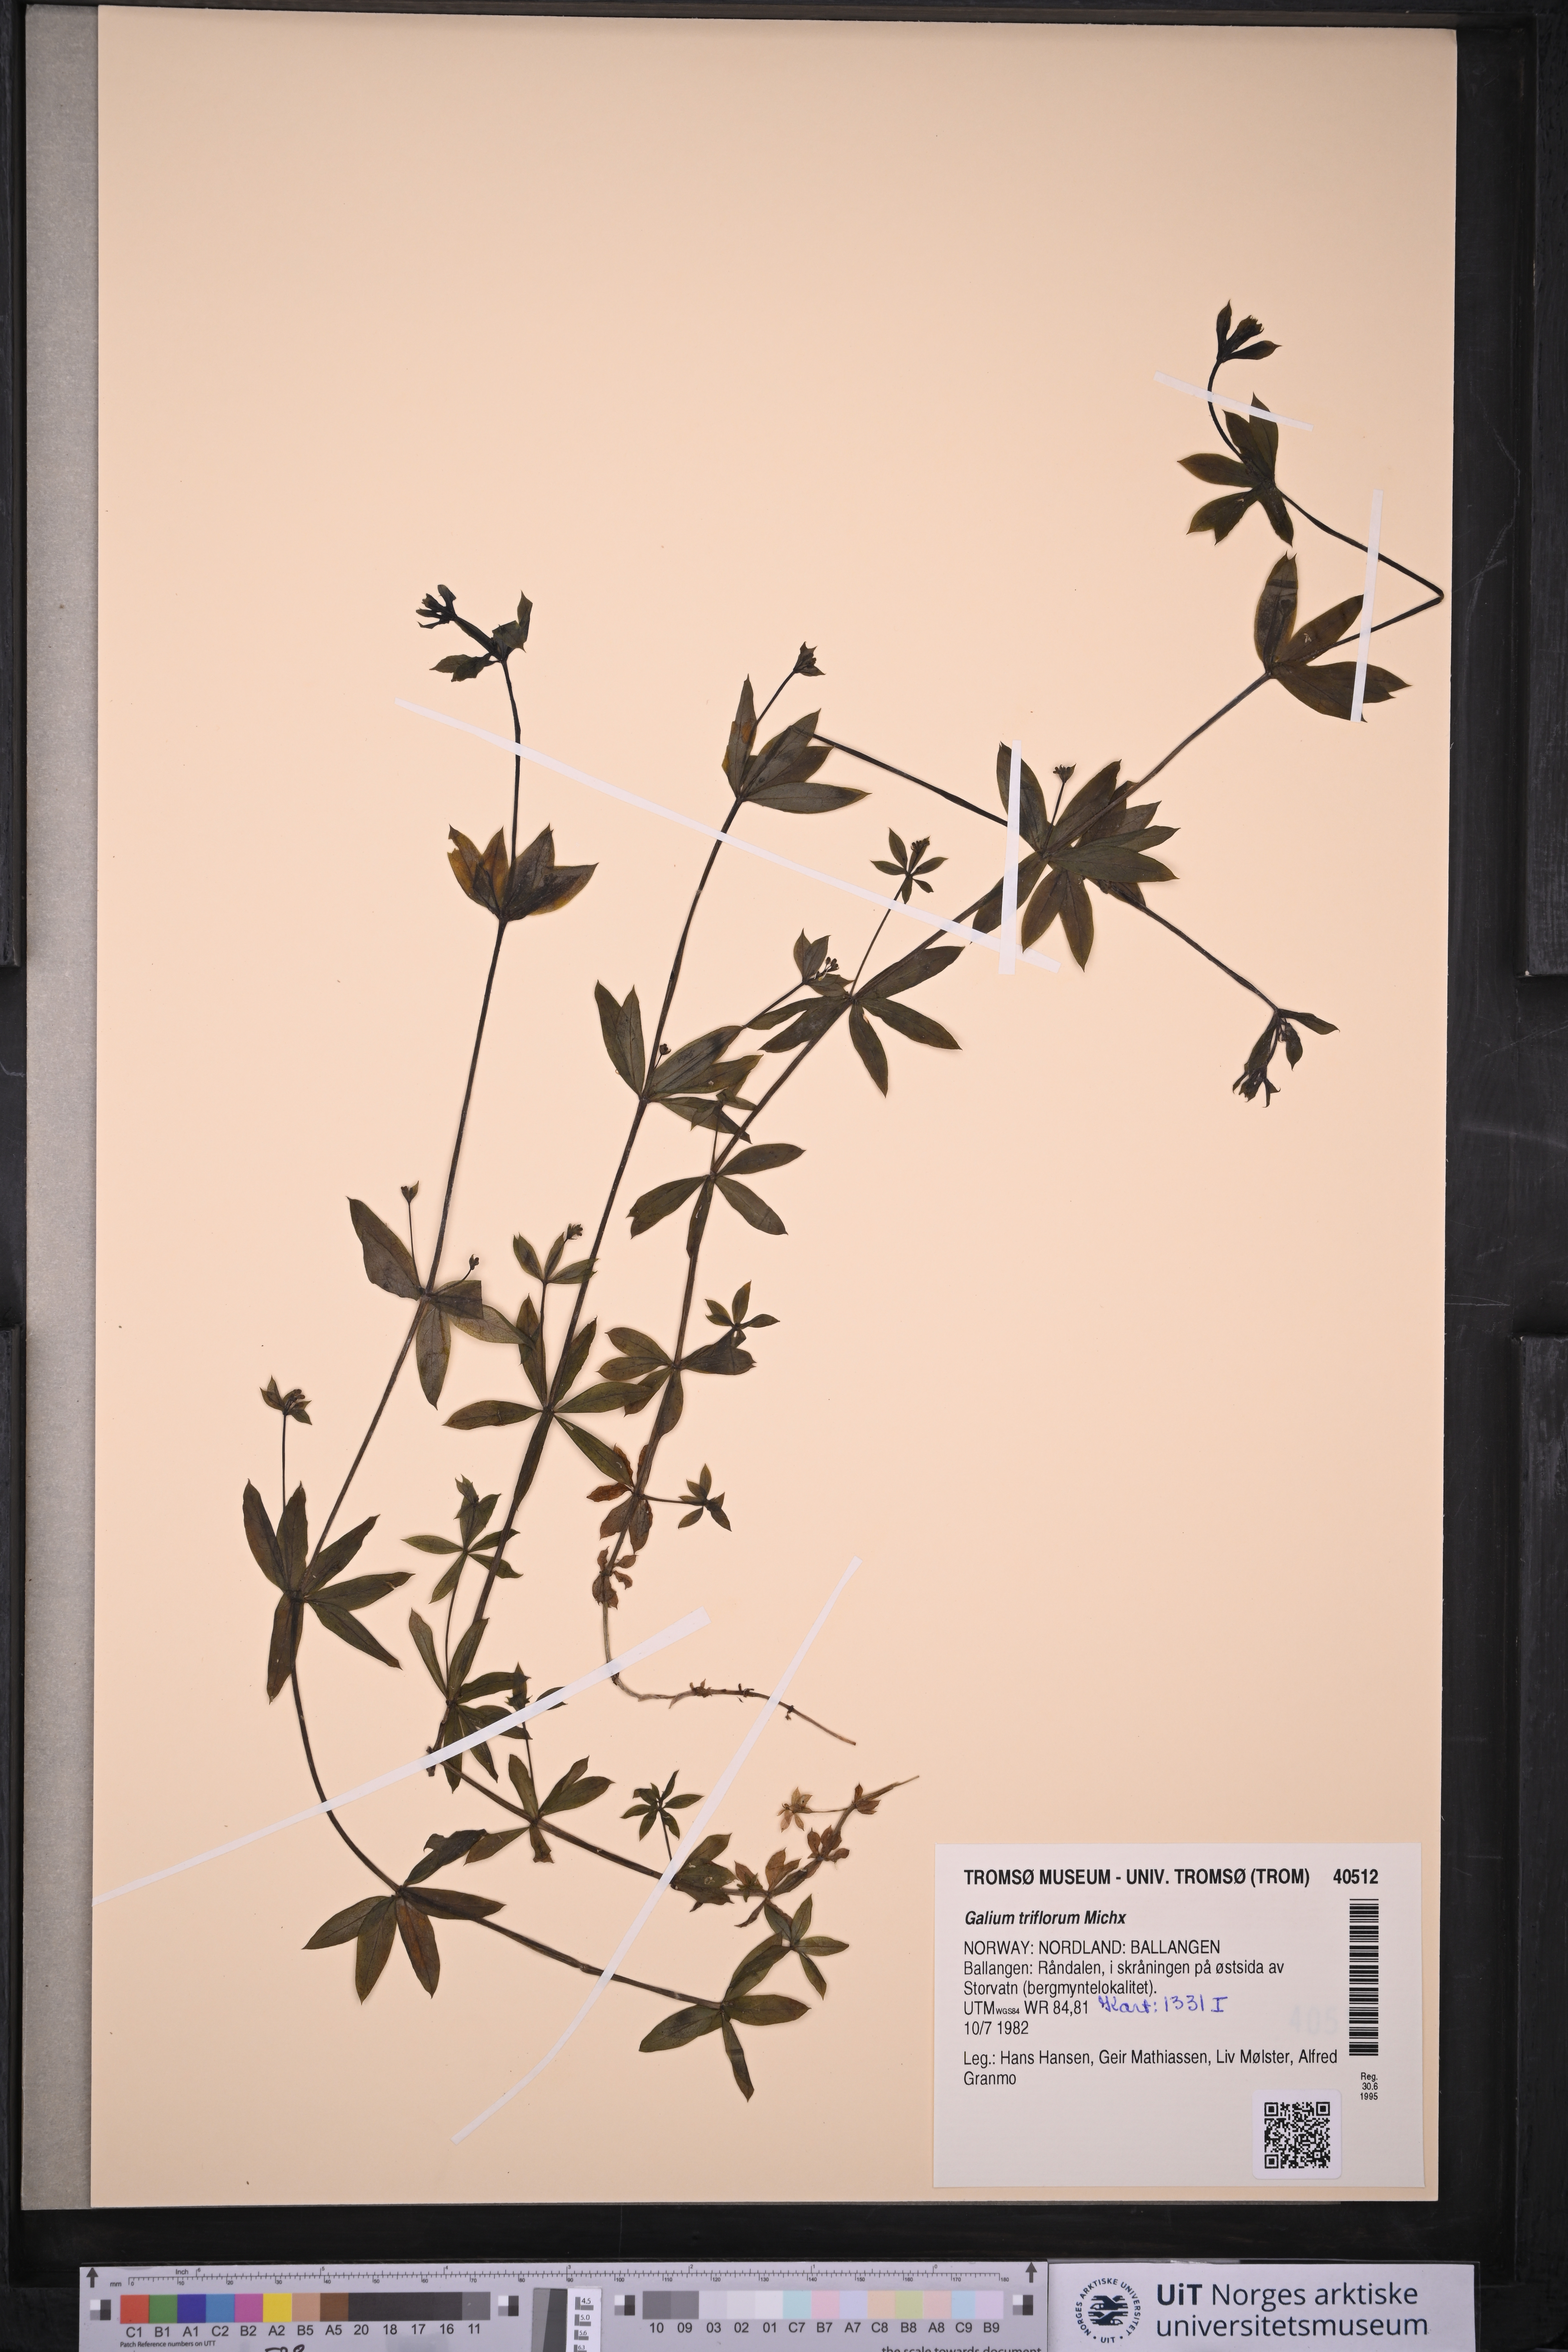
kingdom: Plantae
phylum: Tracheophyta
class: Magnoliopsida
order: Gentianales
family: Rubiaceae
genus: Galium
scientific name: Galium triflorum
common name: Fragrant bedstraw
